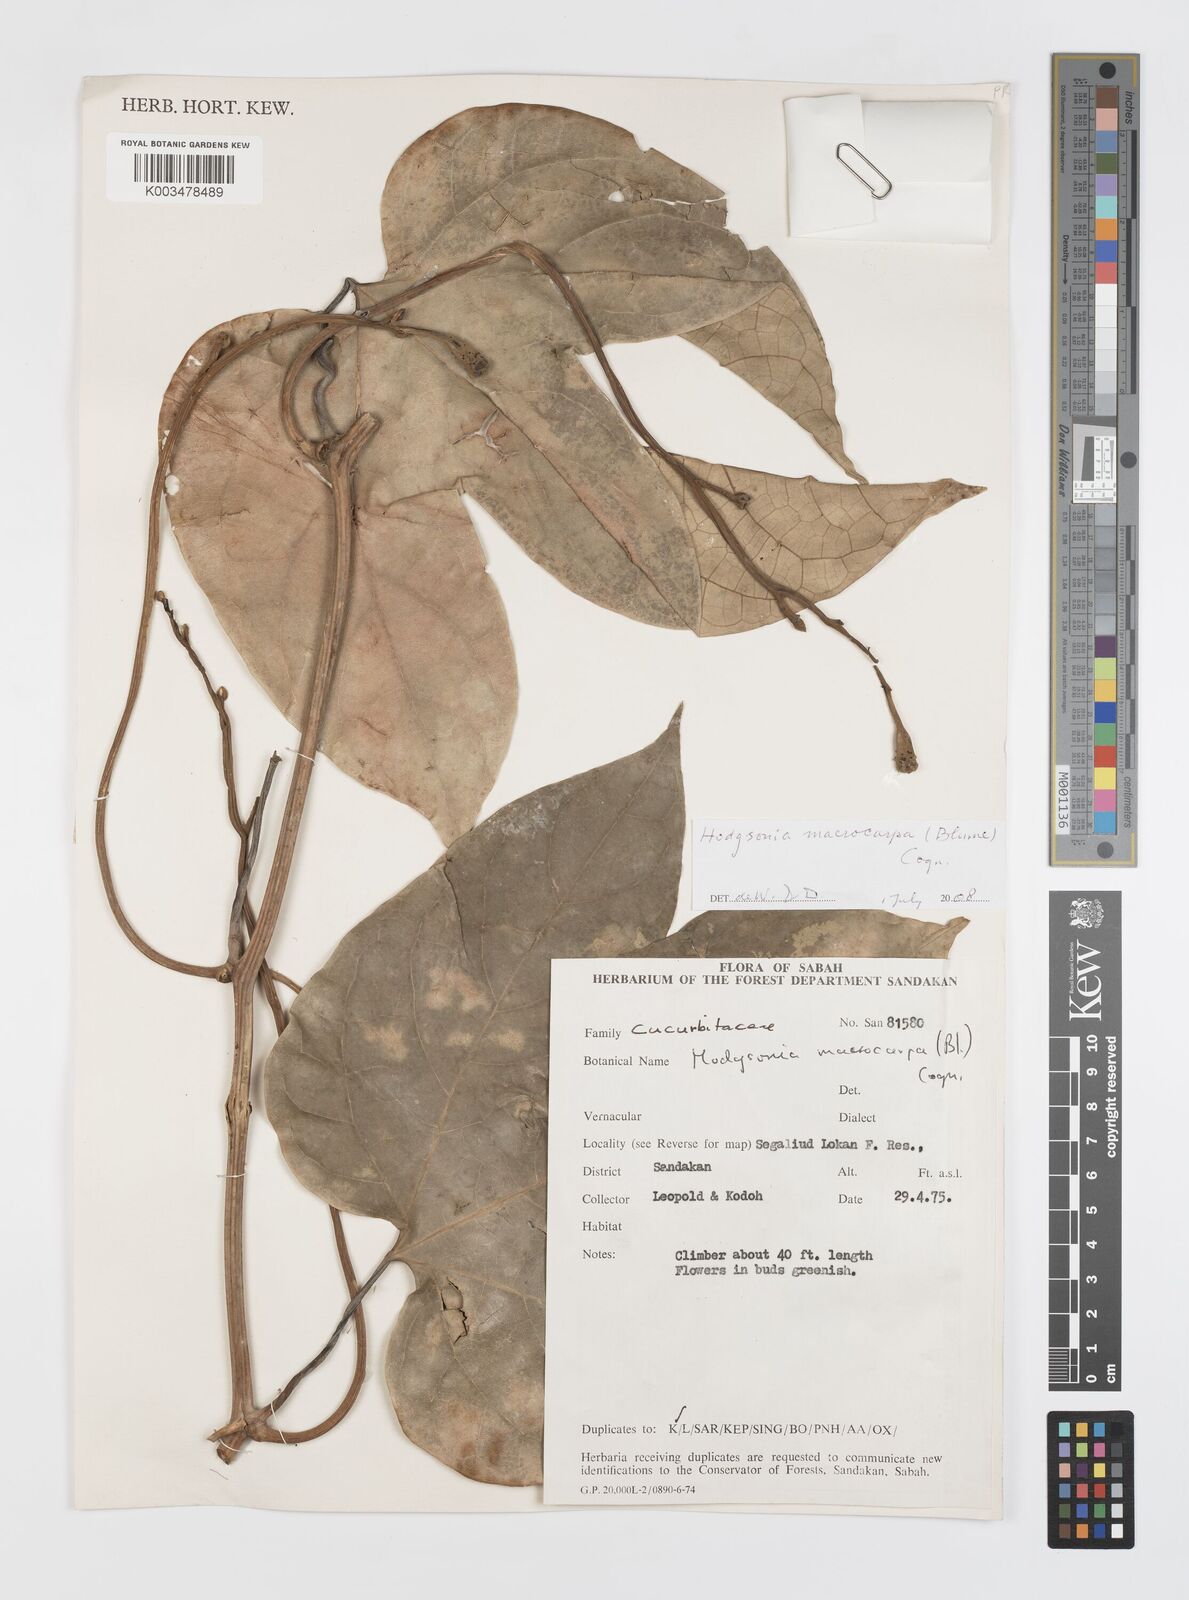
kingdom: Plantae
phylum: Tracheophyta
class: Magnoliopsida
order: Cucurbitales
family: Cucurbitaceae
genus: Hodgsonia
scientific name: Hodgsonia macrocarpa
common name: Chinese lardfruit
